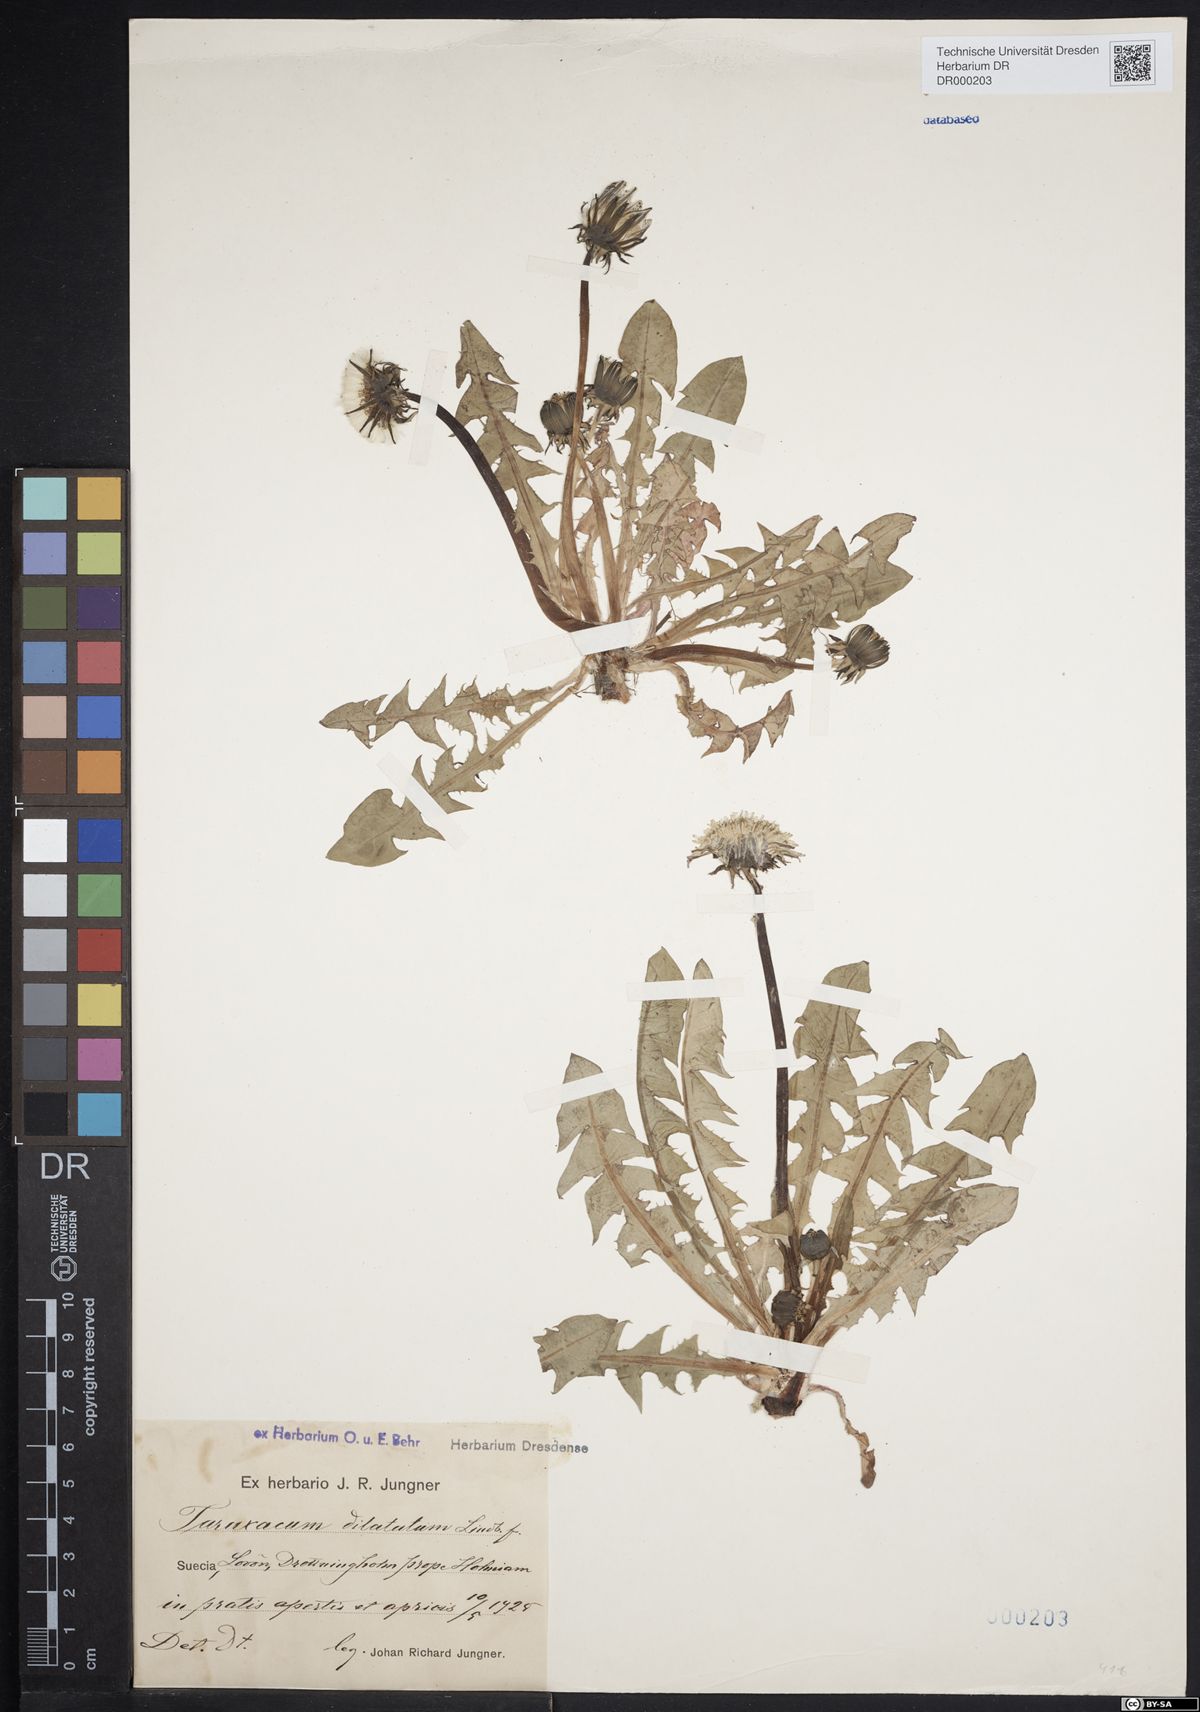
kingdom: Plantae
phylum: Tracheophyta
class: Magnoliopsida
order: Asterales
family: Asteraceae
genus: Taraxacum
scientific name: Taraxacum dilatatum
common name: Grassland dandelion
